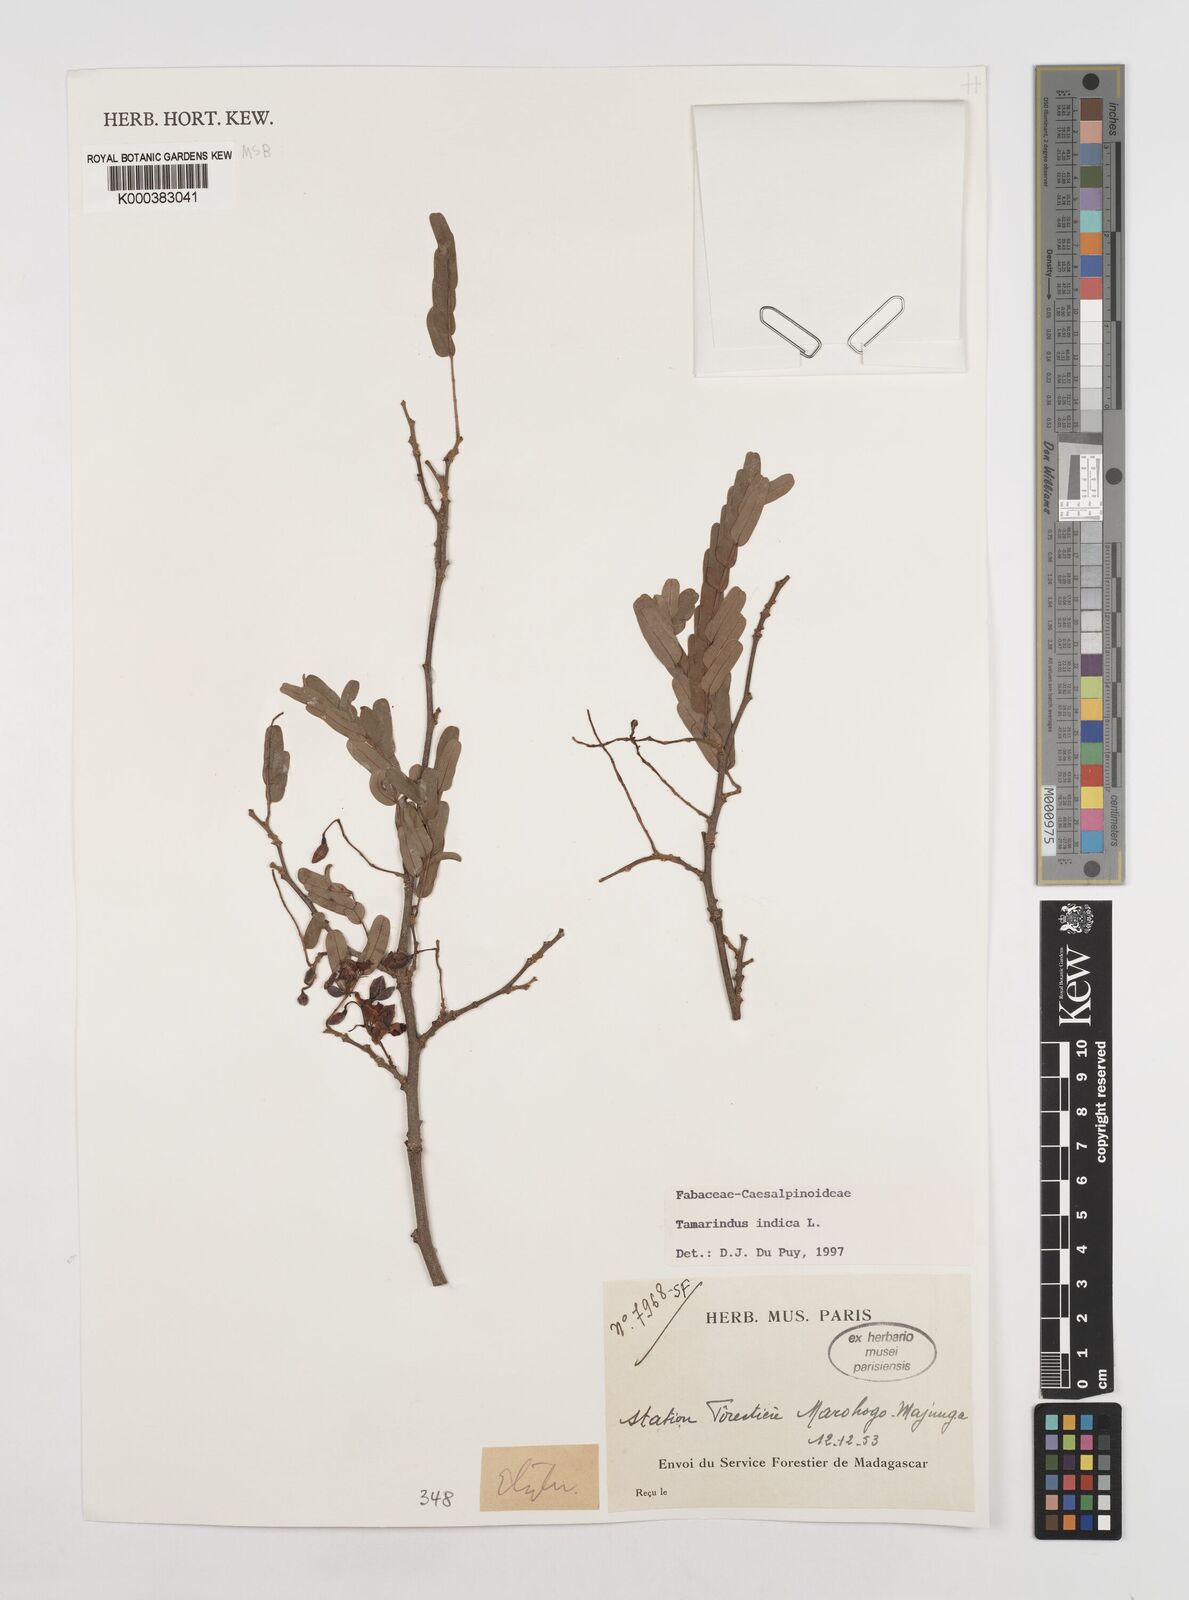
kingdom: Plantae
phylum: Tracheophyta
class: Magnoliopsida
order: Fabales
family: Fabaceae
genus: Tamarindus
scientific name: Tamarindus indica
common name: Tamarind
